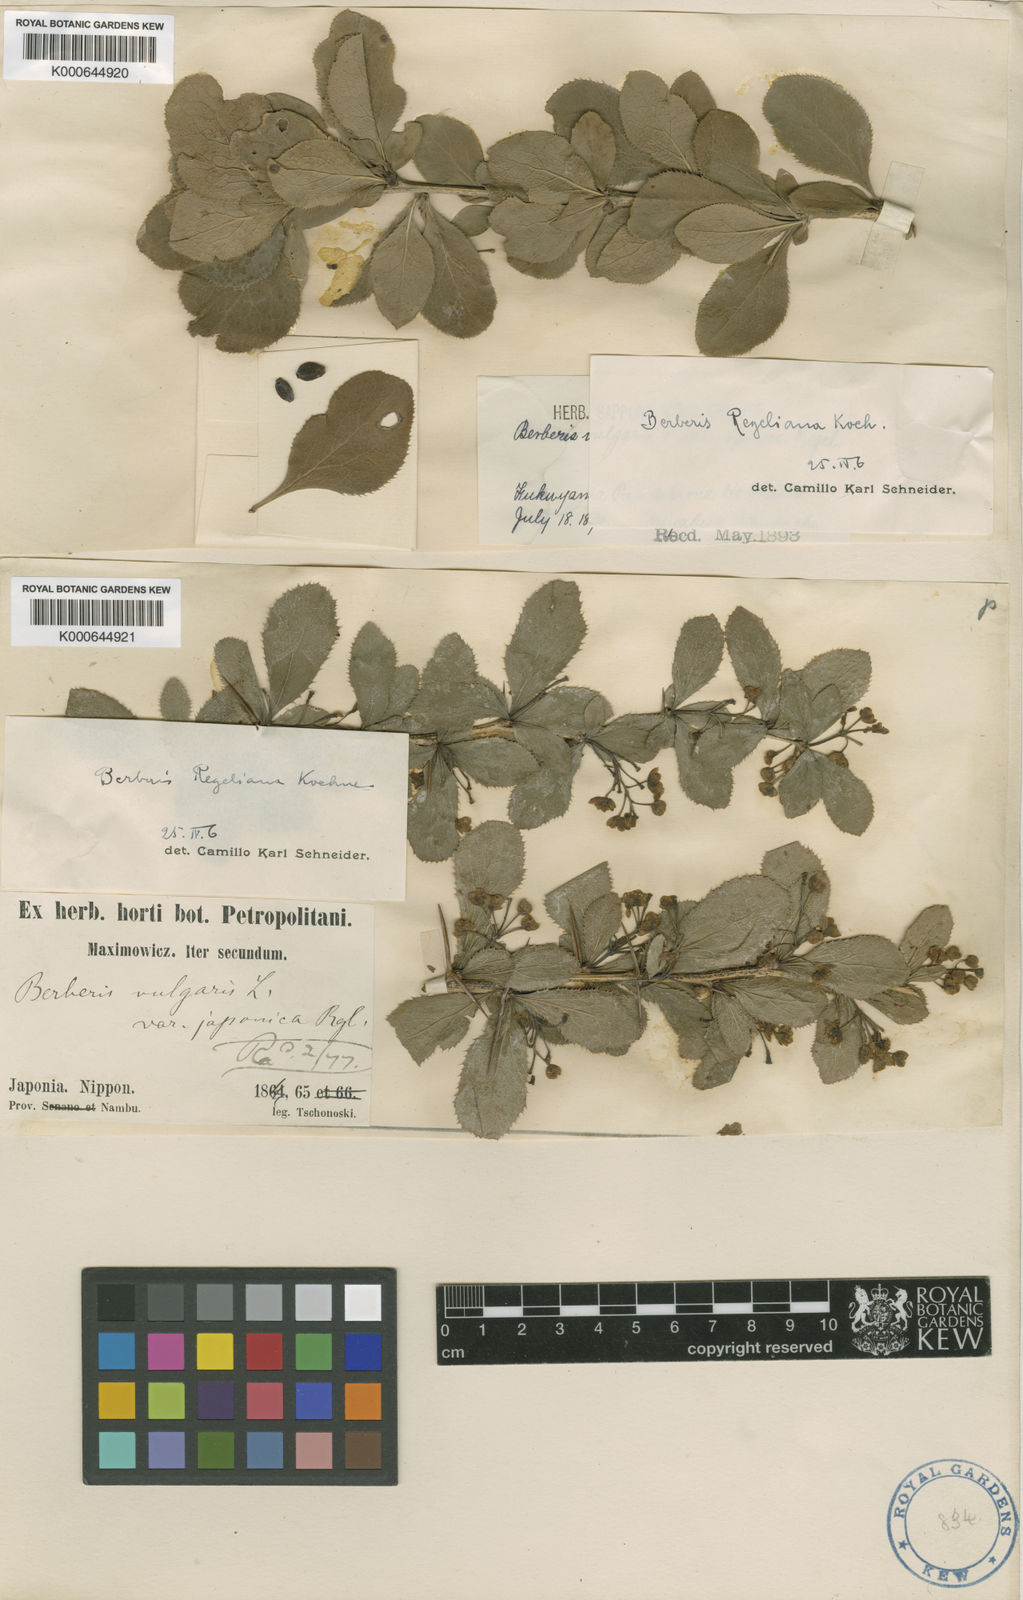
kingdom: Plantae
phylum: Tracheophyta
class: Magnoliopsida
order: Ranunculales
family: Berberidaceae
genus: Berberis
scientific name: Berberis amurensis
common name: Amur barberry
